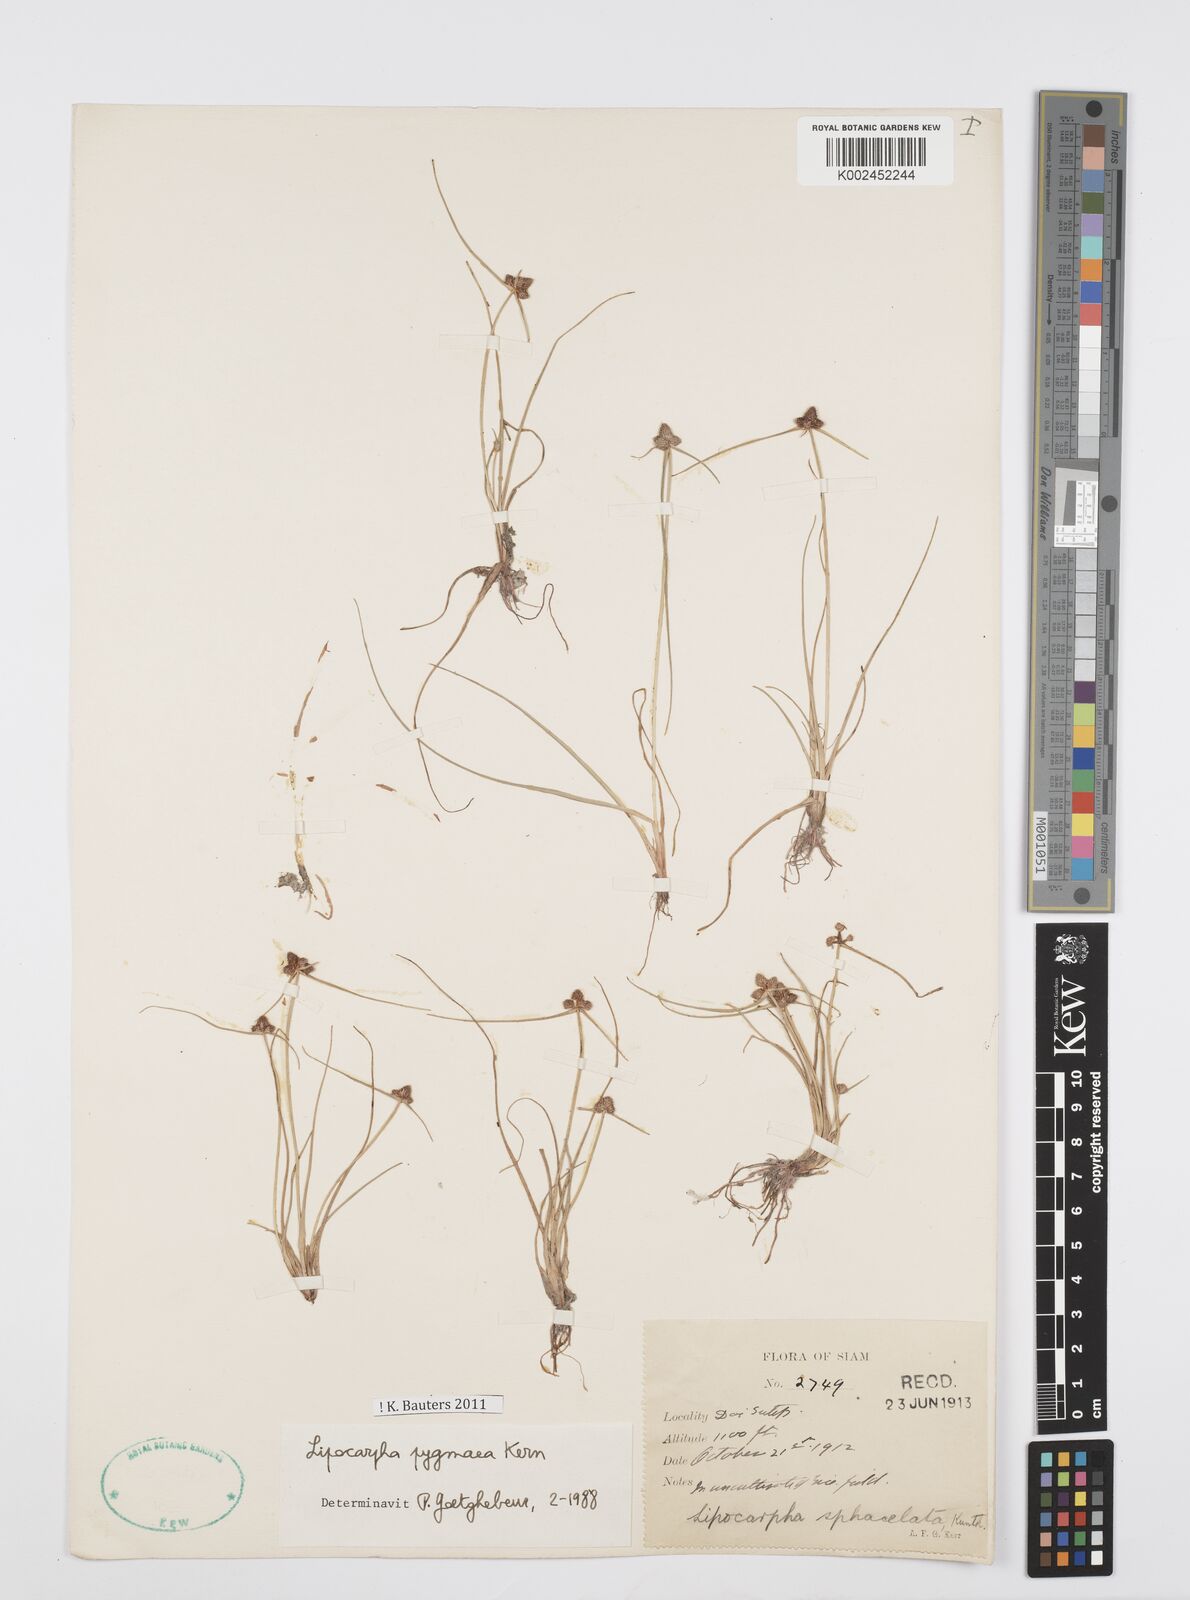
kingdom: Plantae
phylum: Tracheophyta
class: Liliopsida
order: Poales
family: Cyperaceae
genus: Cyperus
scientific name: Cyperus
